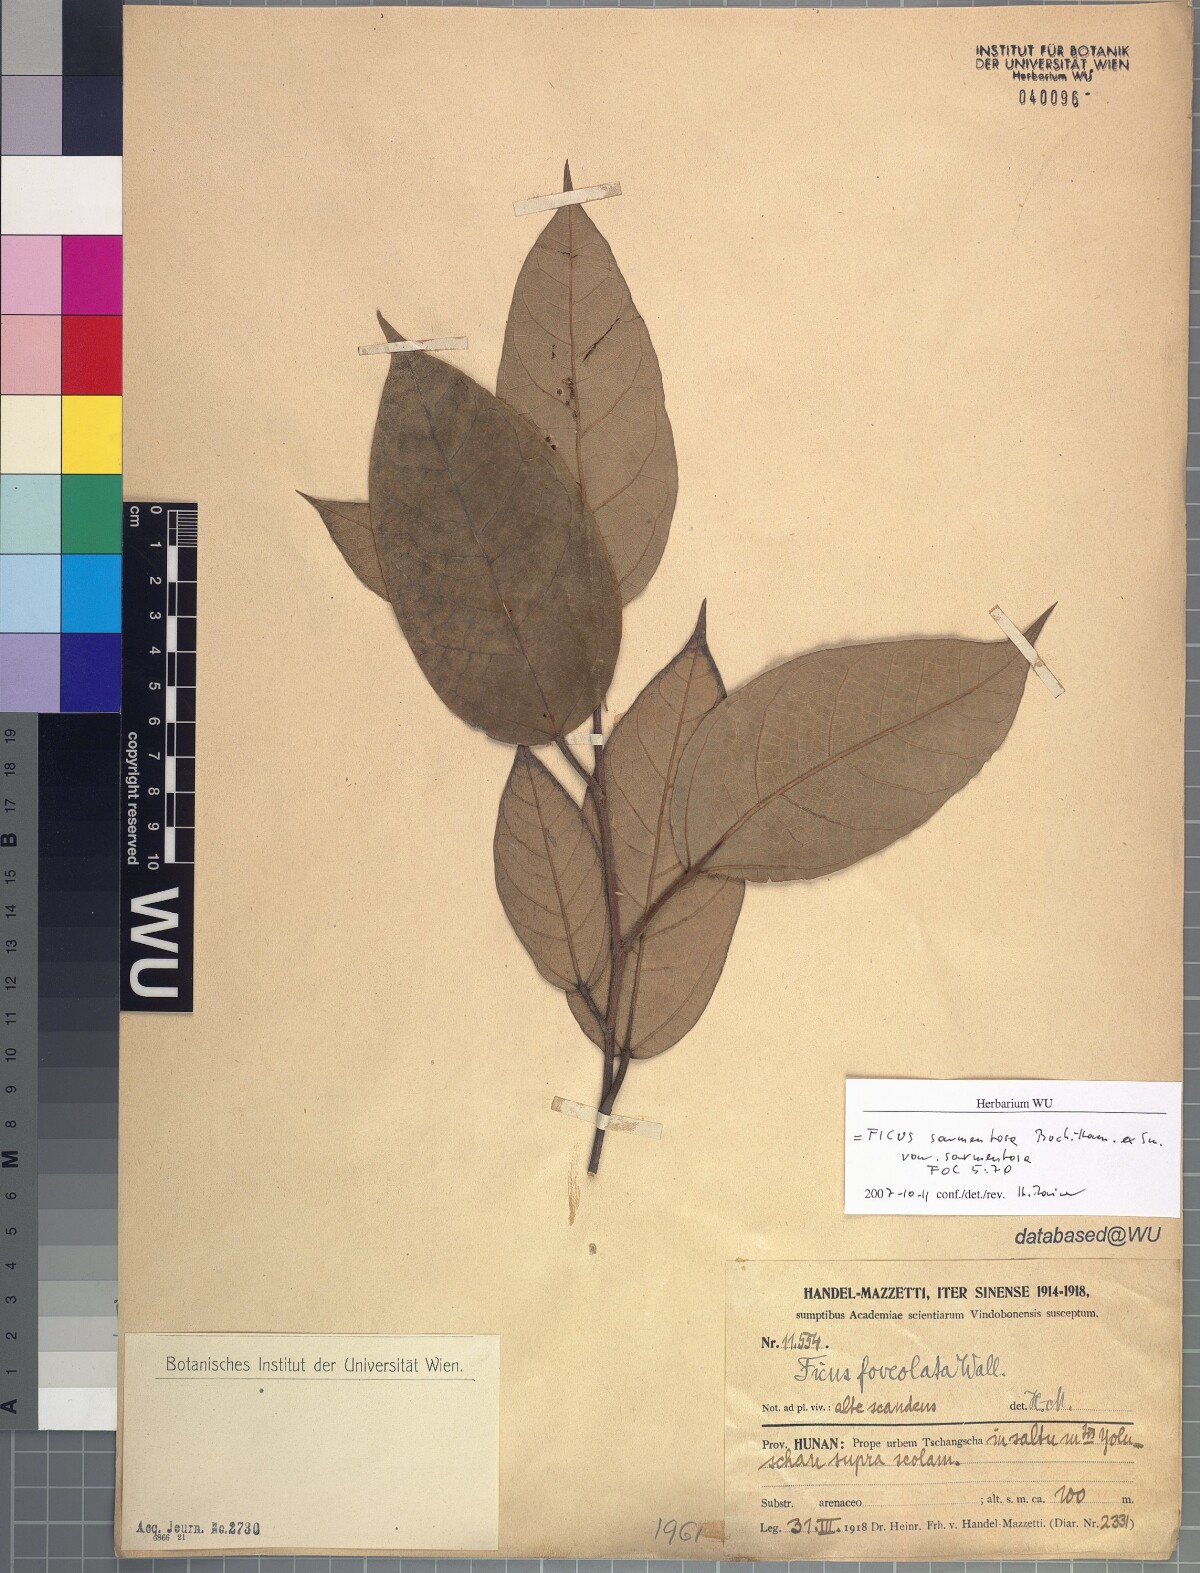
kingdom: Plantae
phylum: Tracheophyta
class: Magnoliopsida
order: Rosales
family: Moraceae
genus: Ficus
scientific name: Ficus sarmentosa
